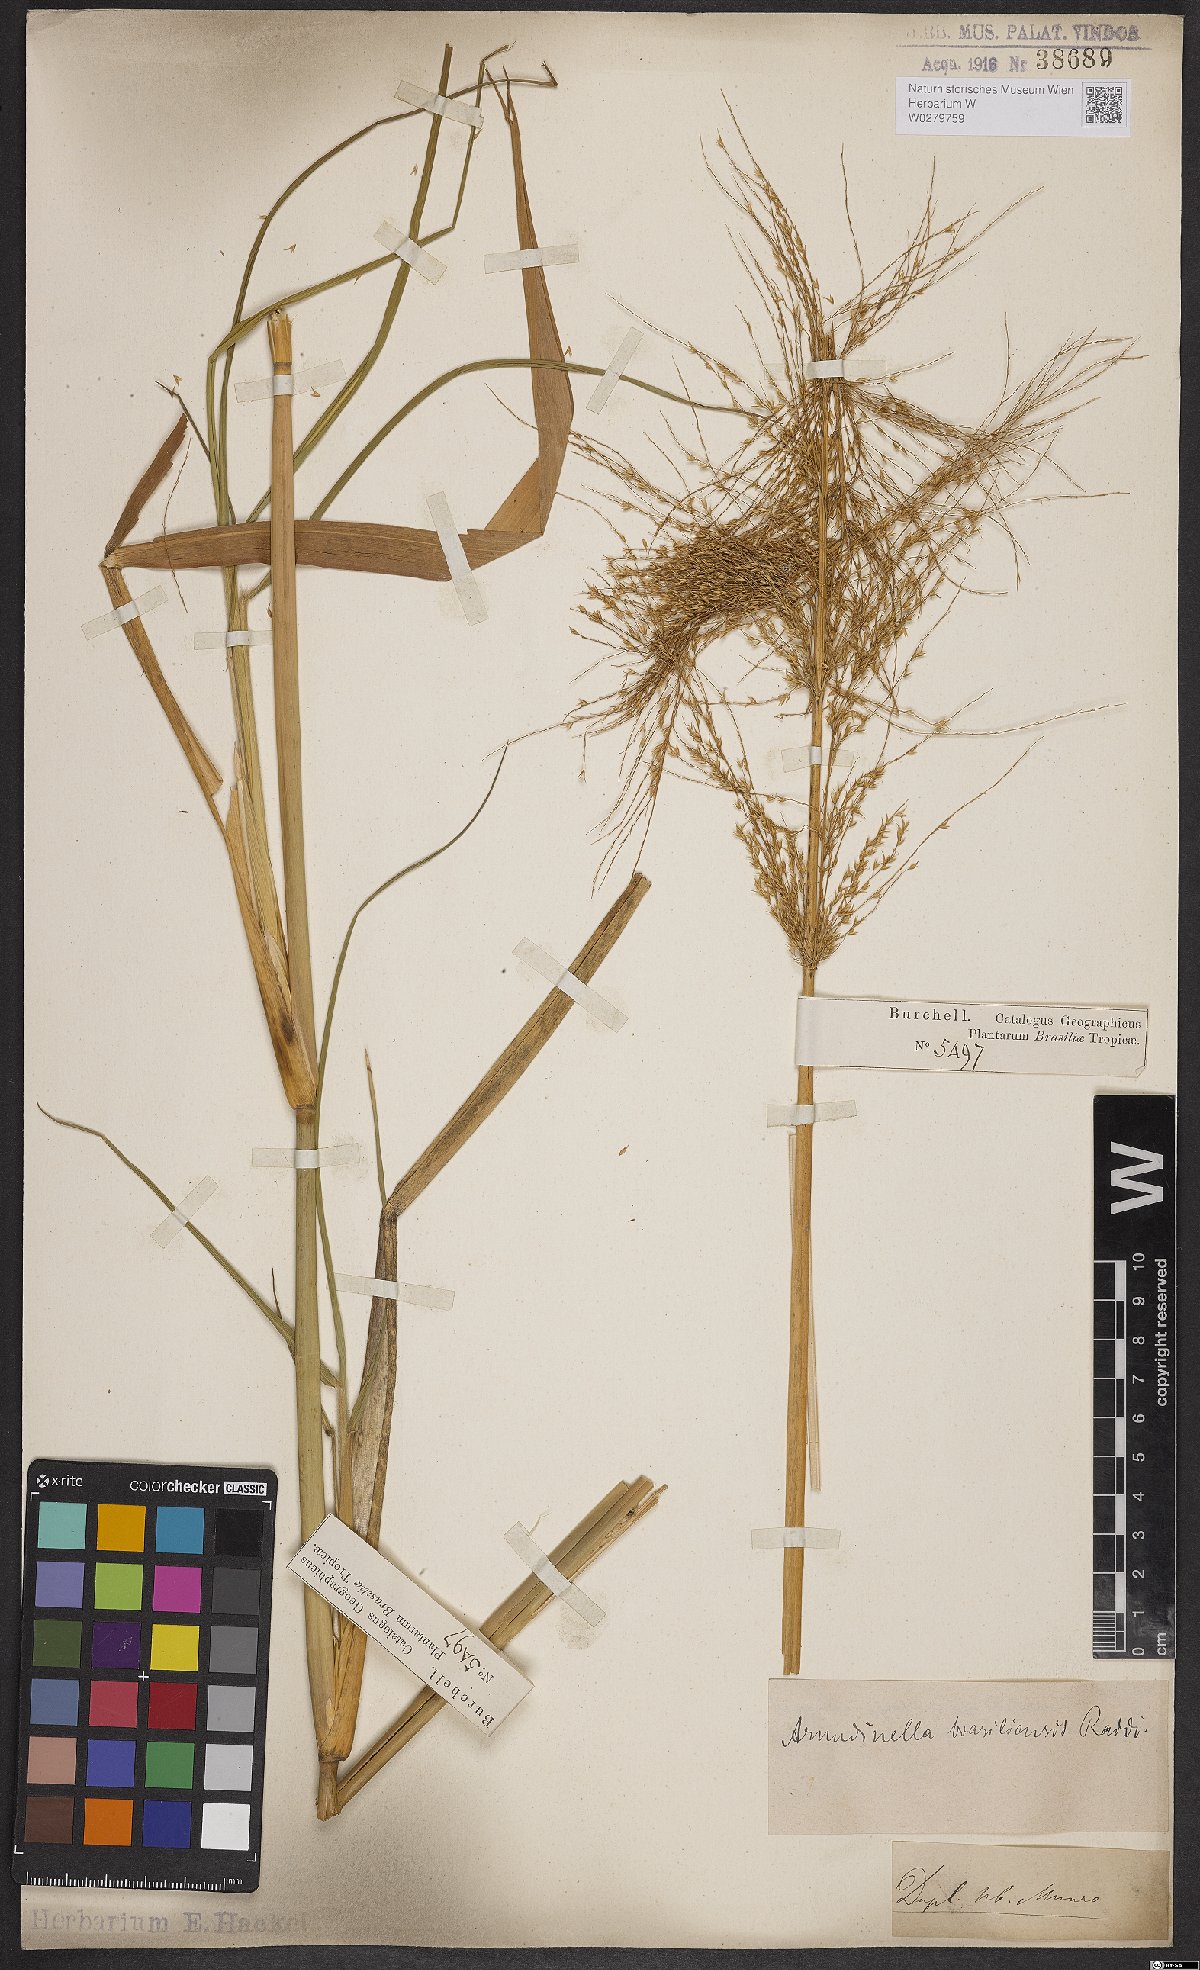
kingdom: Plantae
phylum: Tracheophyta
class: Liliopsida
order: Poales
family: Poaceae
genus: Arundinella
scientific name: Arundinella hispida
